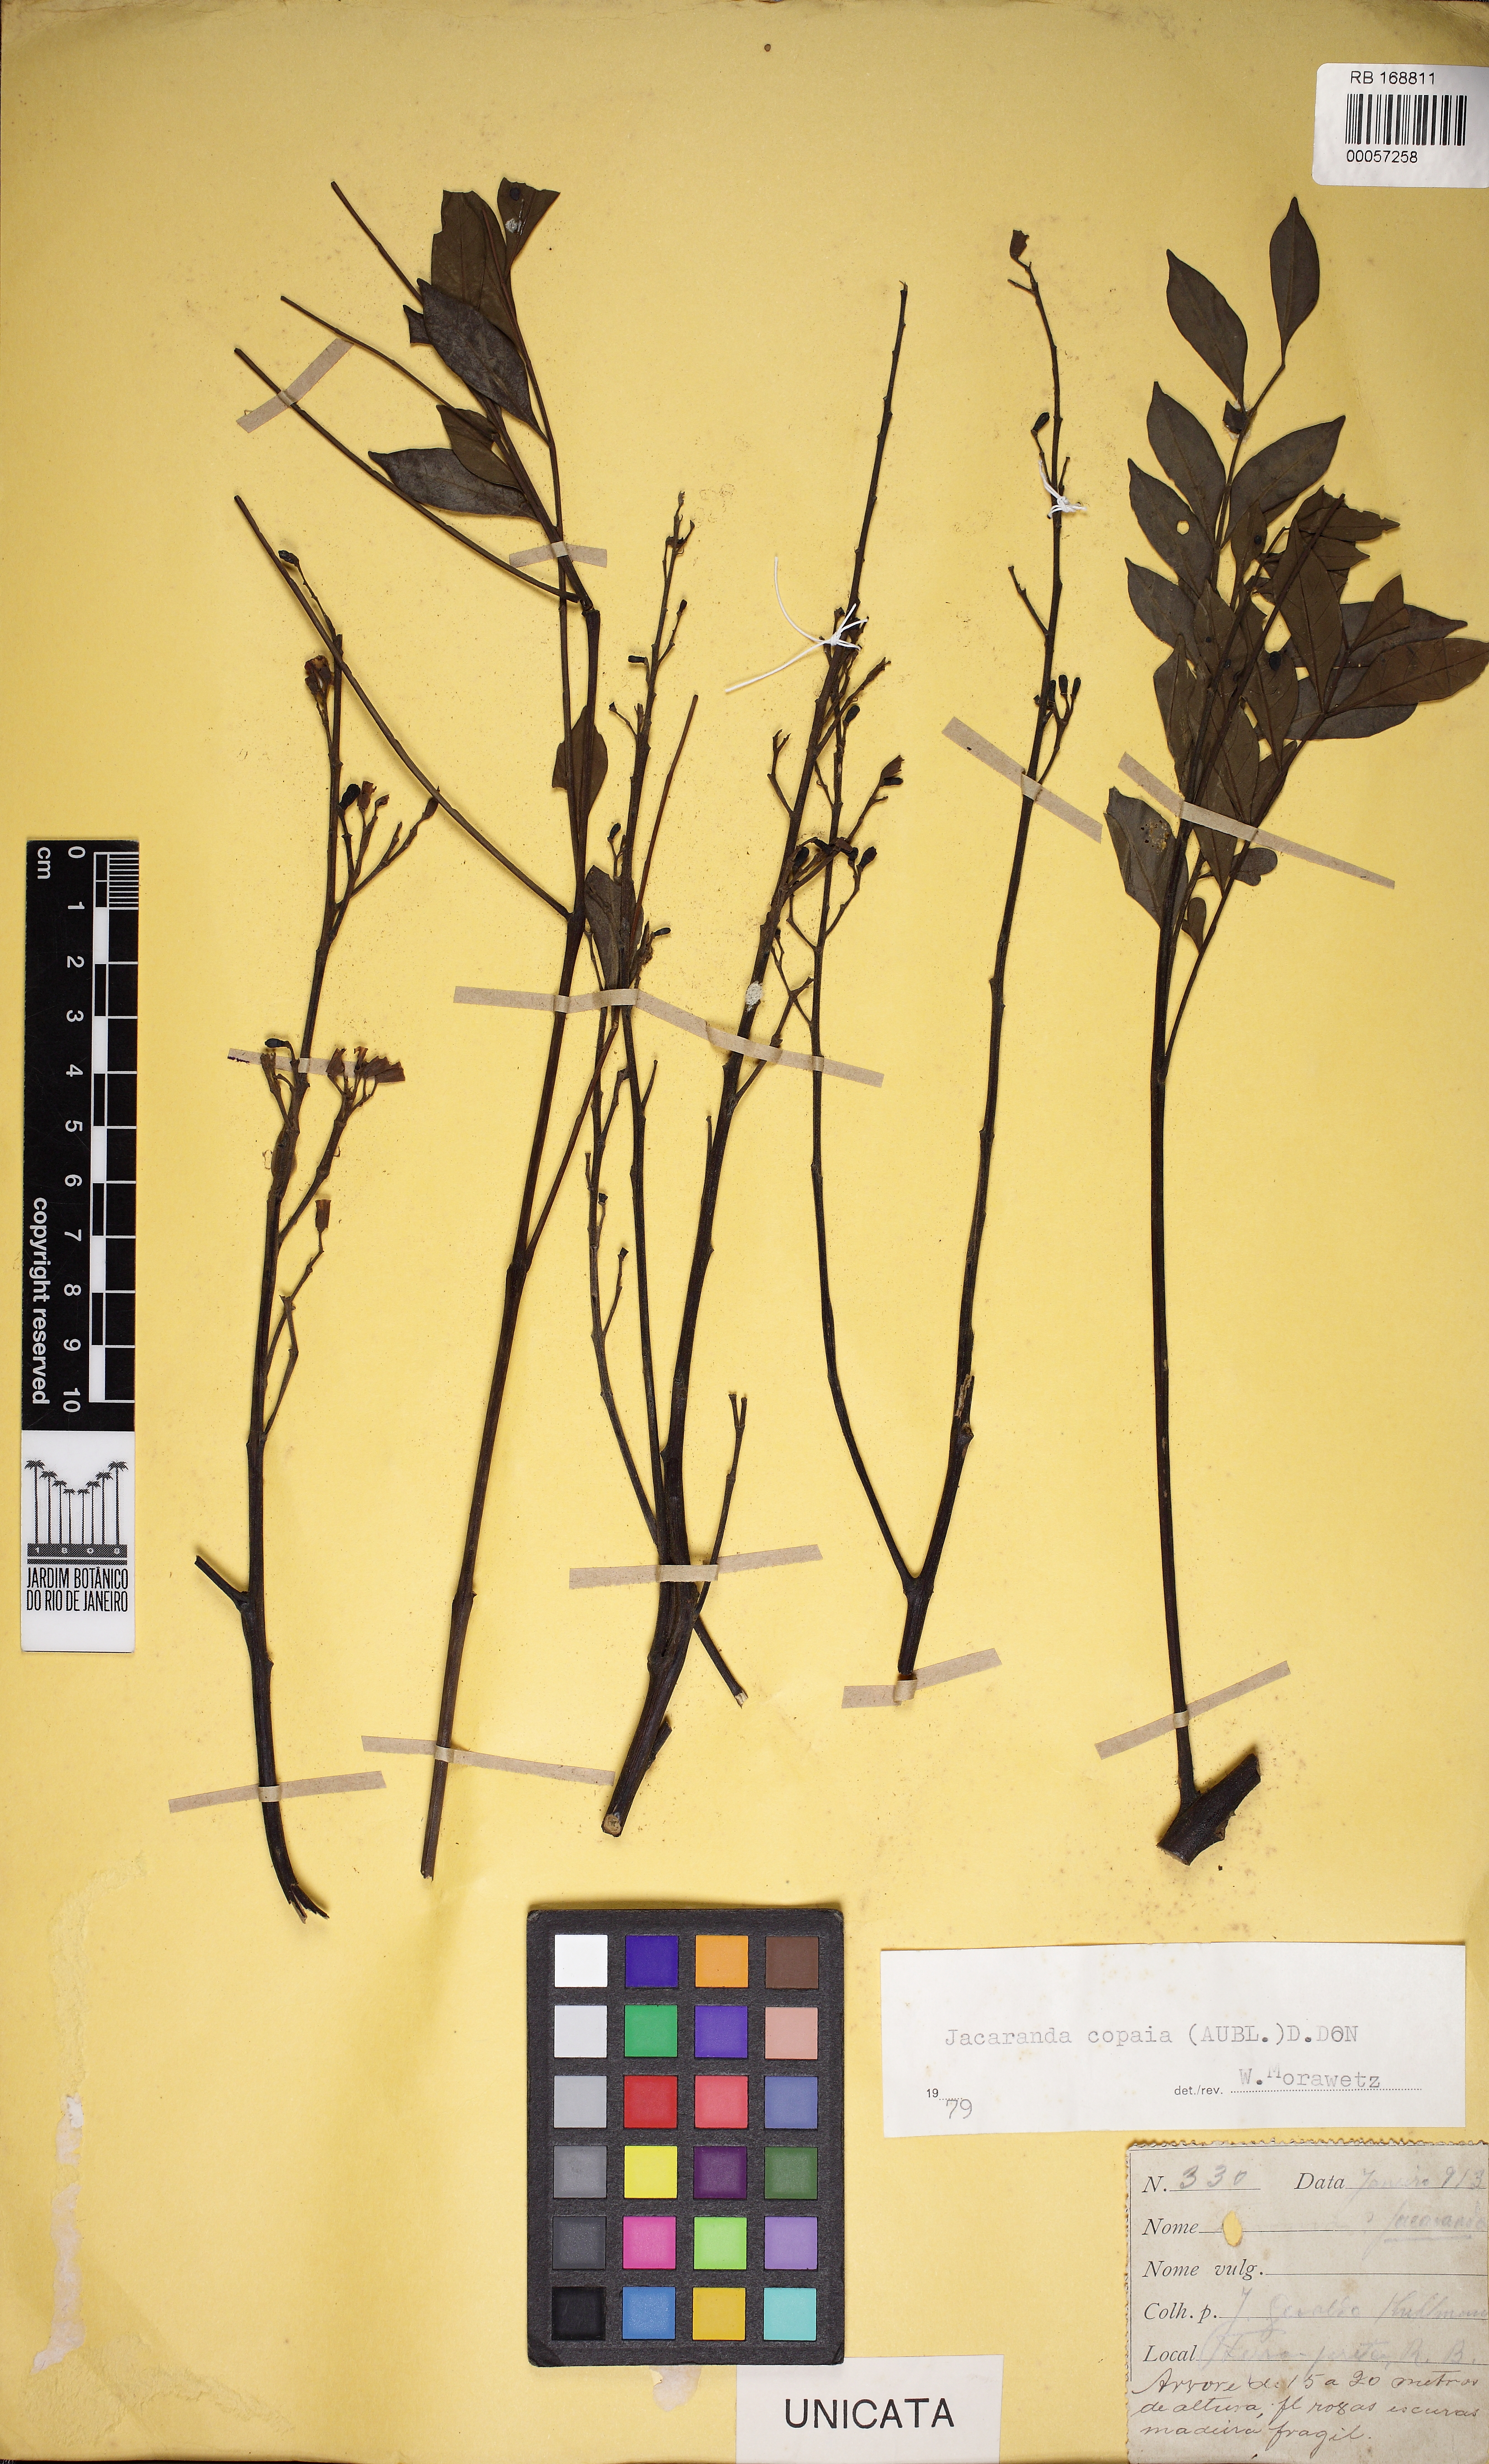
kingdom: Plantae
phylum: Tracheophyta
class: Magnoliopsida
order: Lamiales
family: Bignoniaceae
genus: Jacaranda
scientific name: Jacaranda copaia
